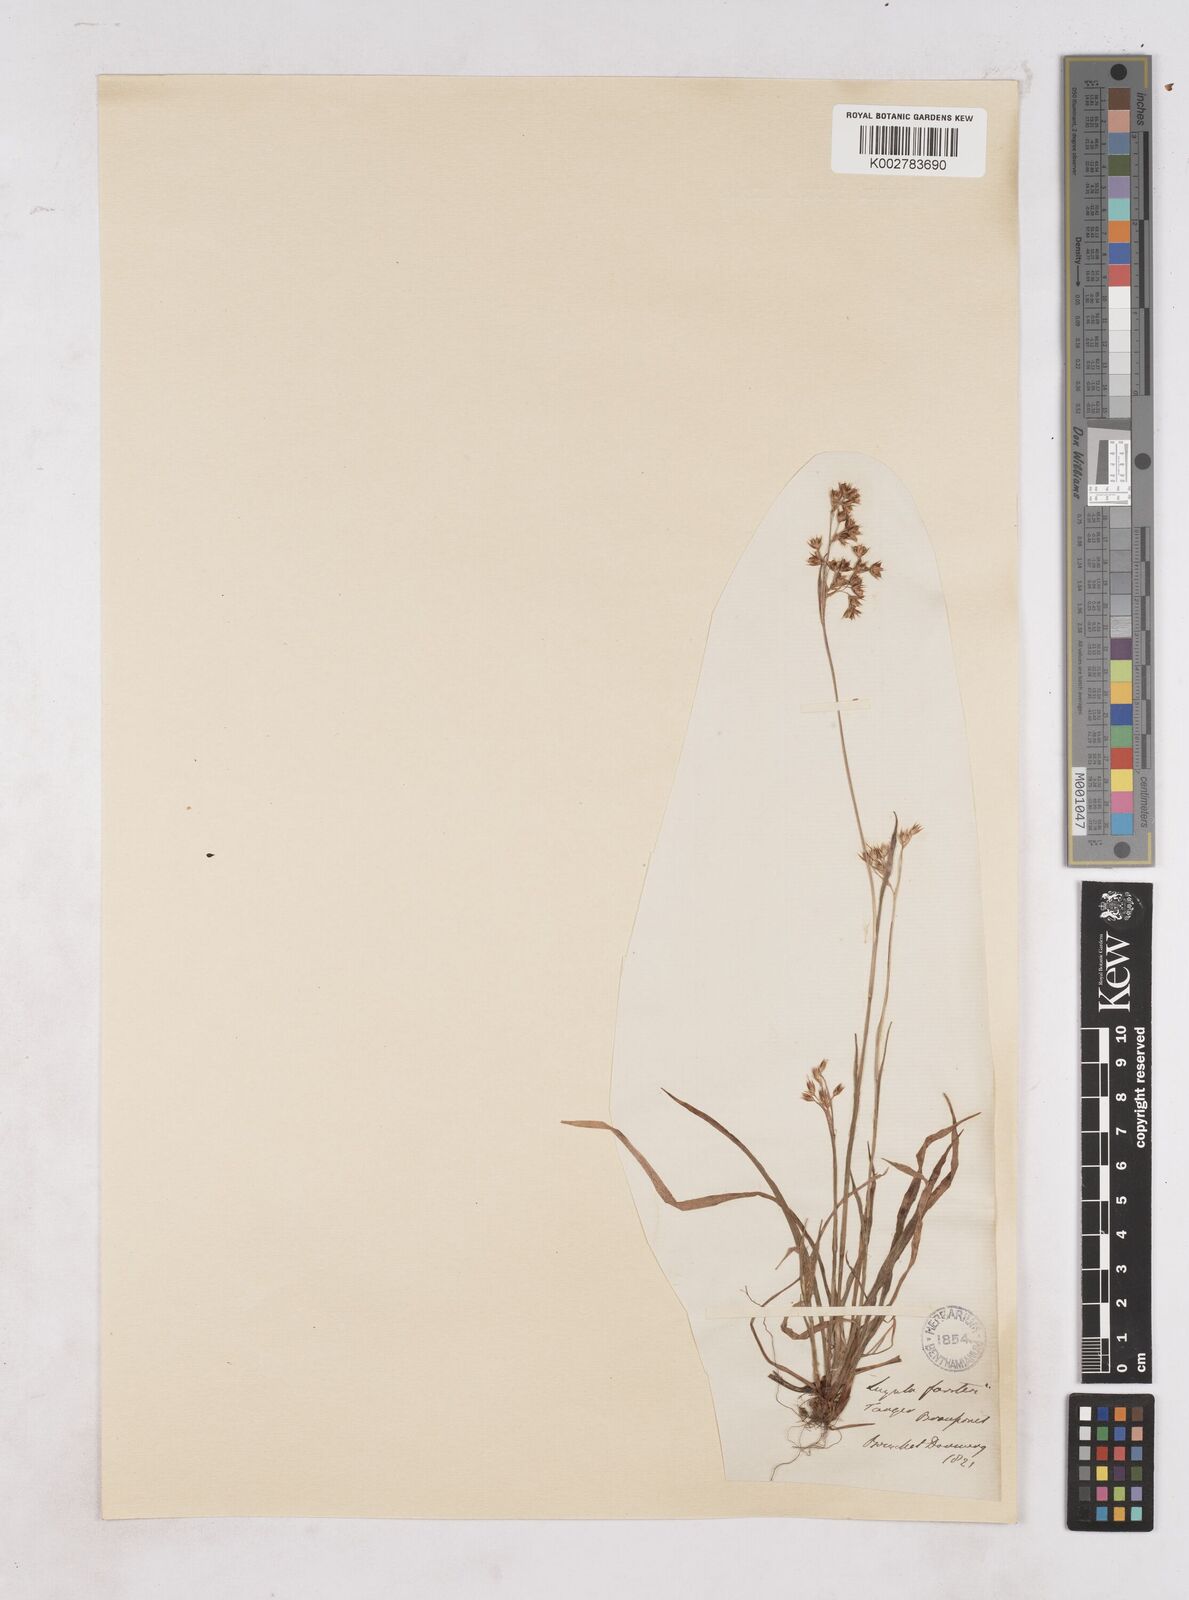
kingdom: Plantae
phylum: Tracheophyta
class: Liliopsida
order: Poales
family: Juncaceae
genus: Luzula
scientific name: Luzula forsteri
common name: Southern wood-rush
